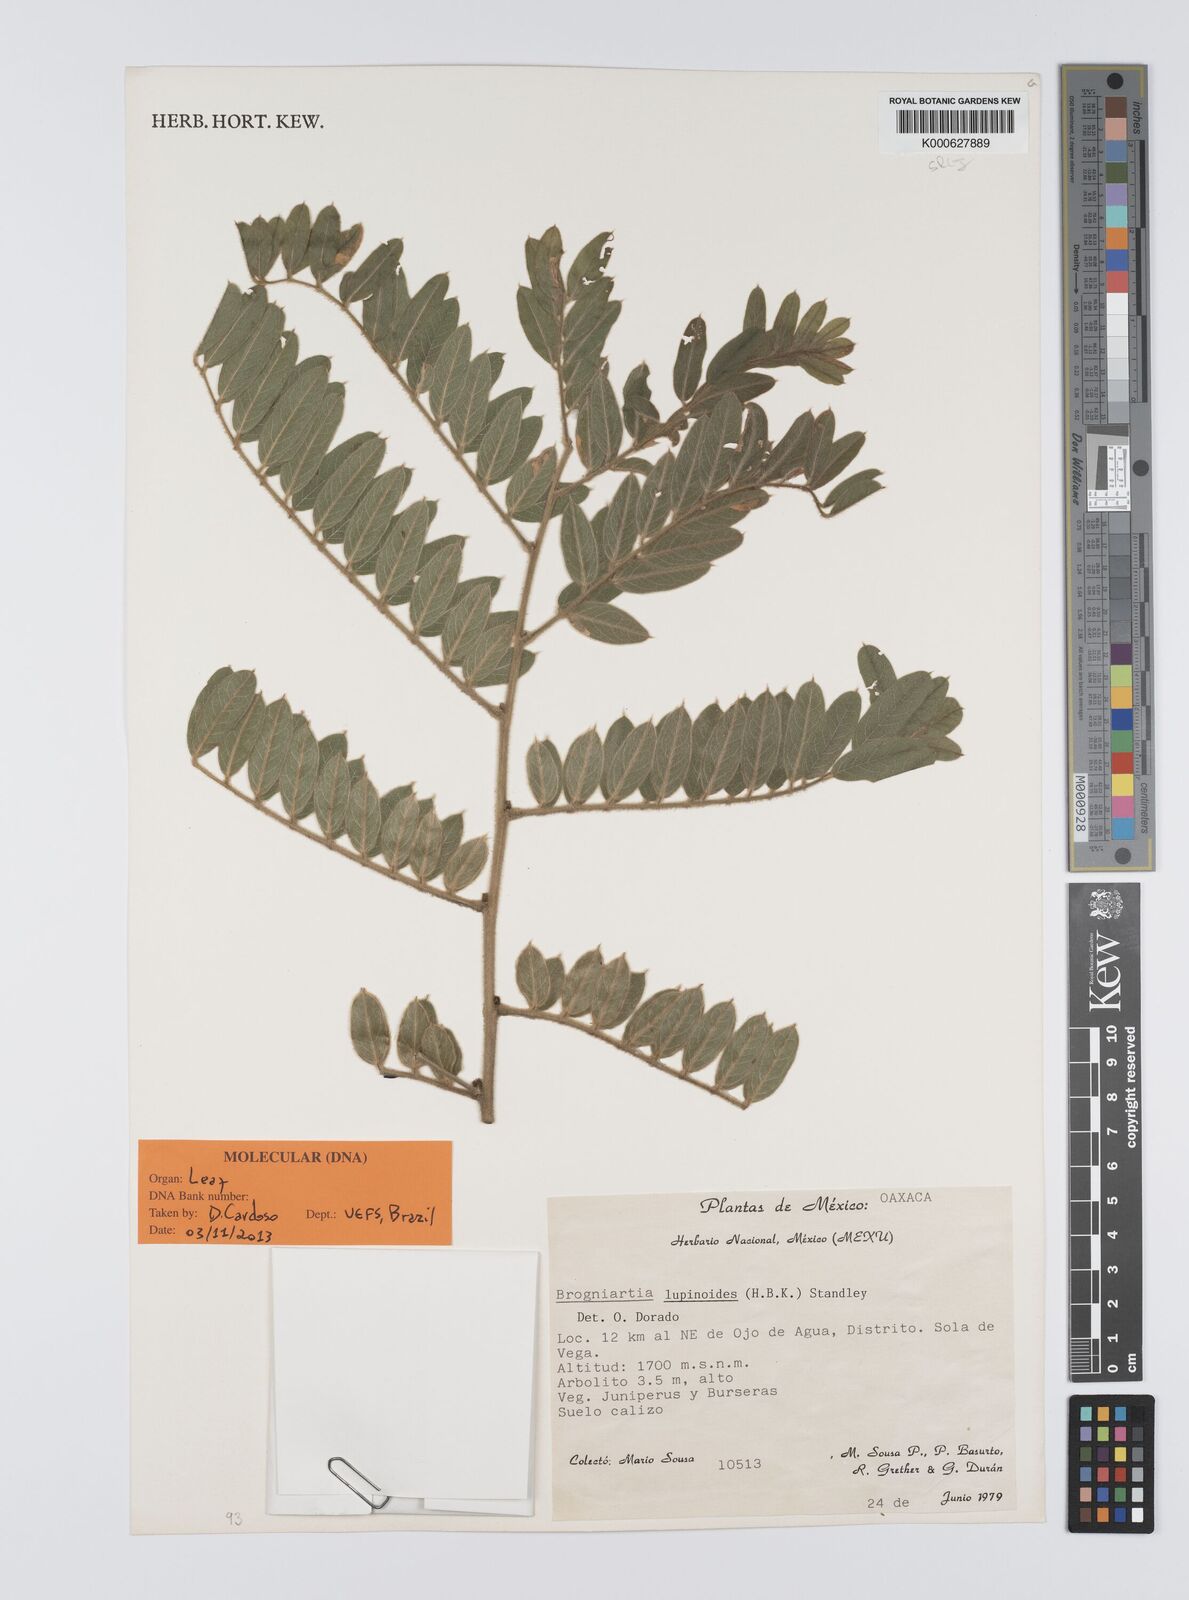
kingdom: Plantae
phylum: Tracheophyta
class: Magnoliopsida
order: Fabales
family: Fabaceae
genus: Brongniartia
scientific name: Brongniartia lupinoides
